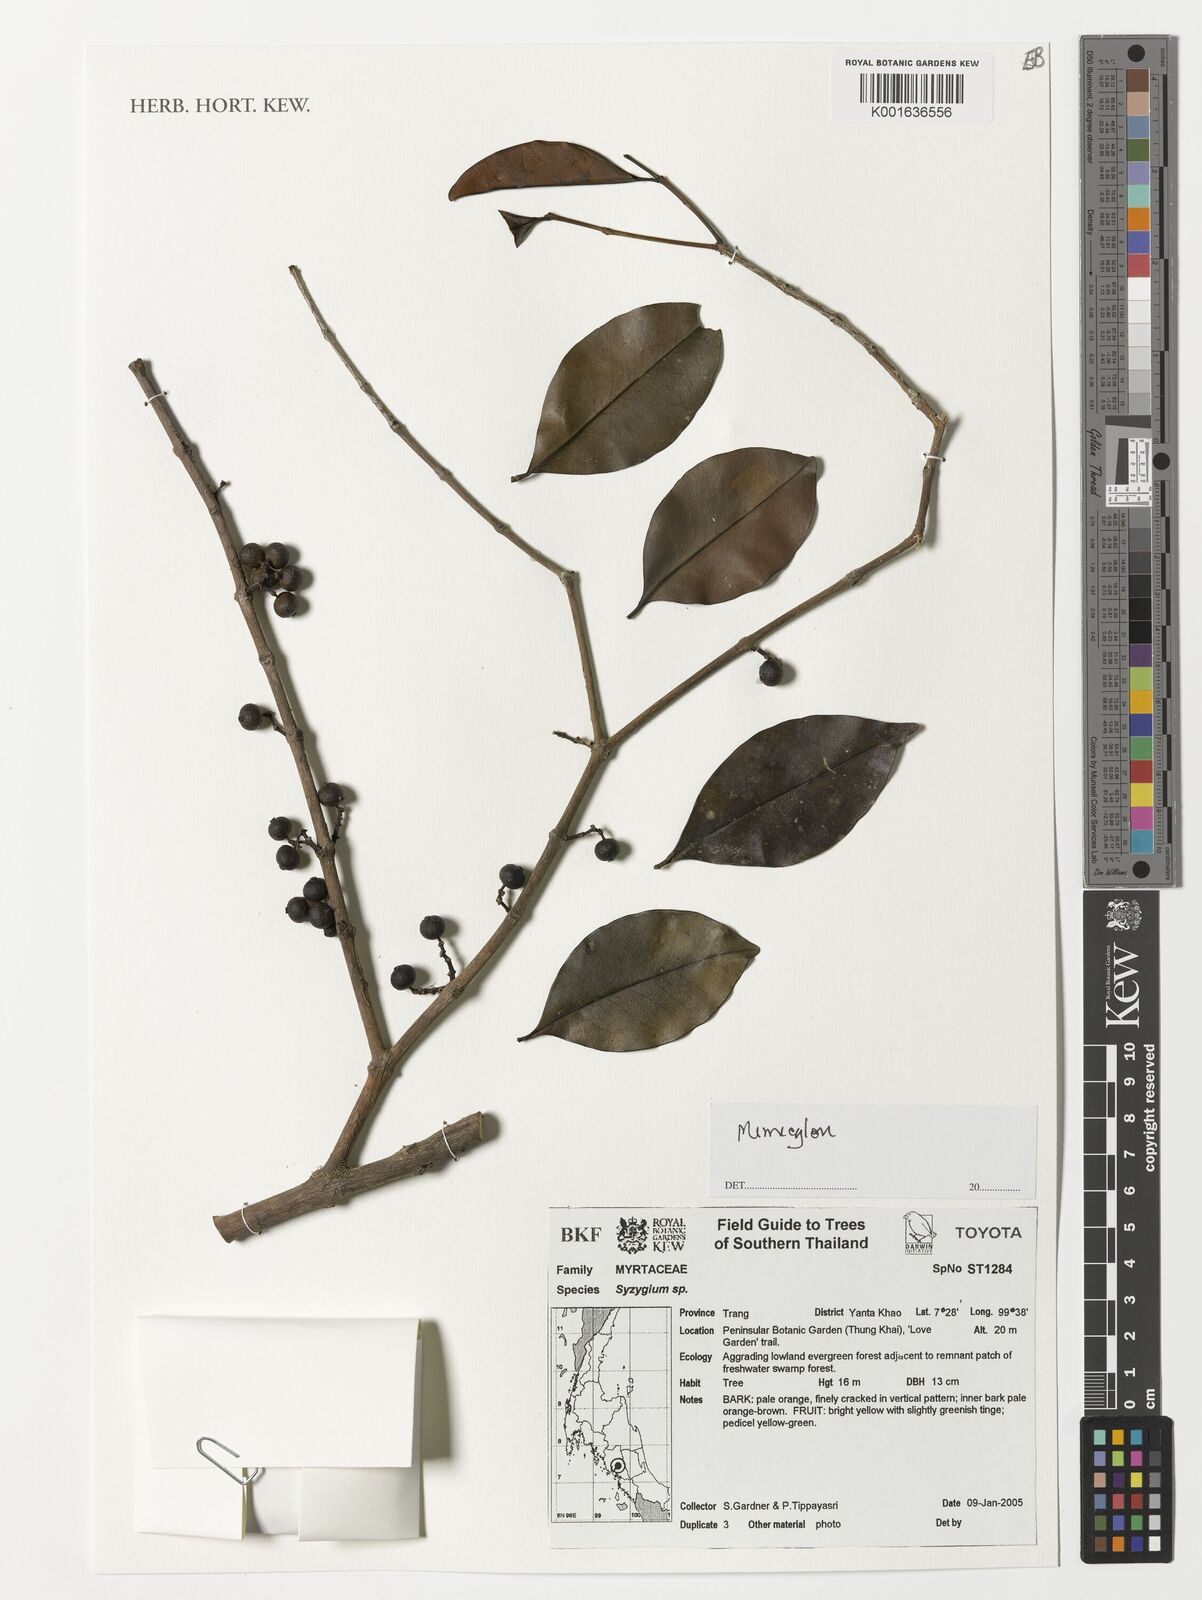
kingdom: Plantae
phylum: Tracheophyta
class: Magnoliopsida
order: Myrtales
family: Melastomataceae
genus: Memecylon
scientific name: Memecylon
